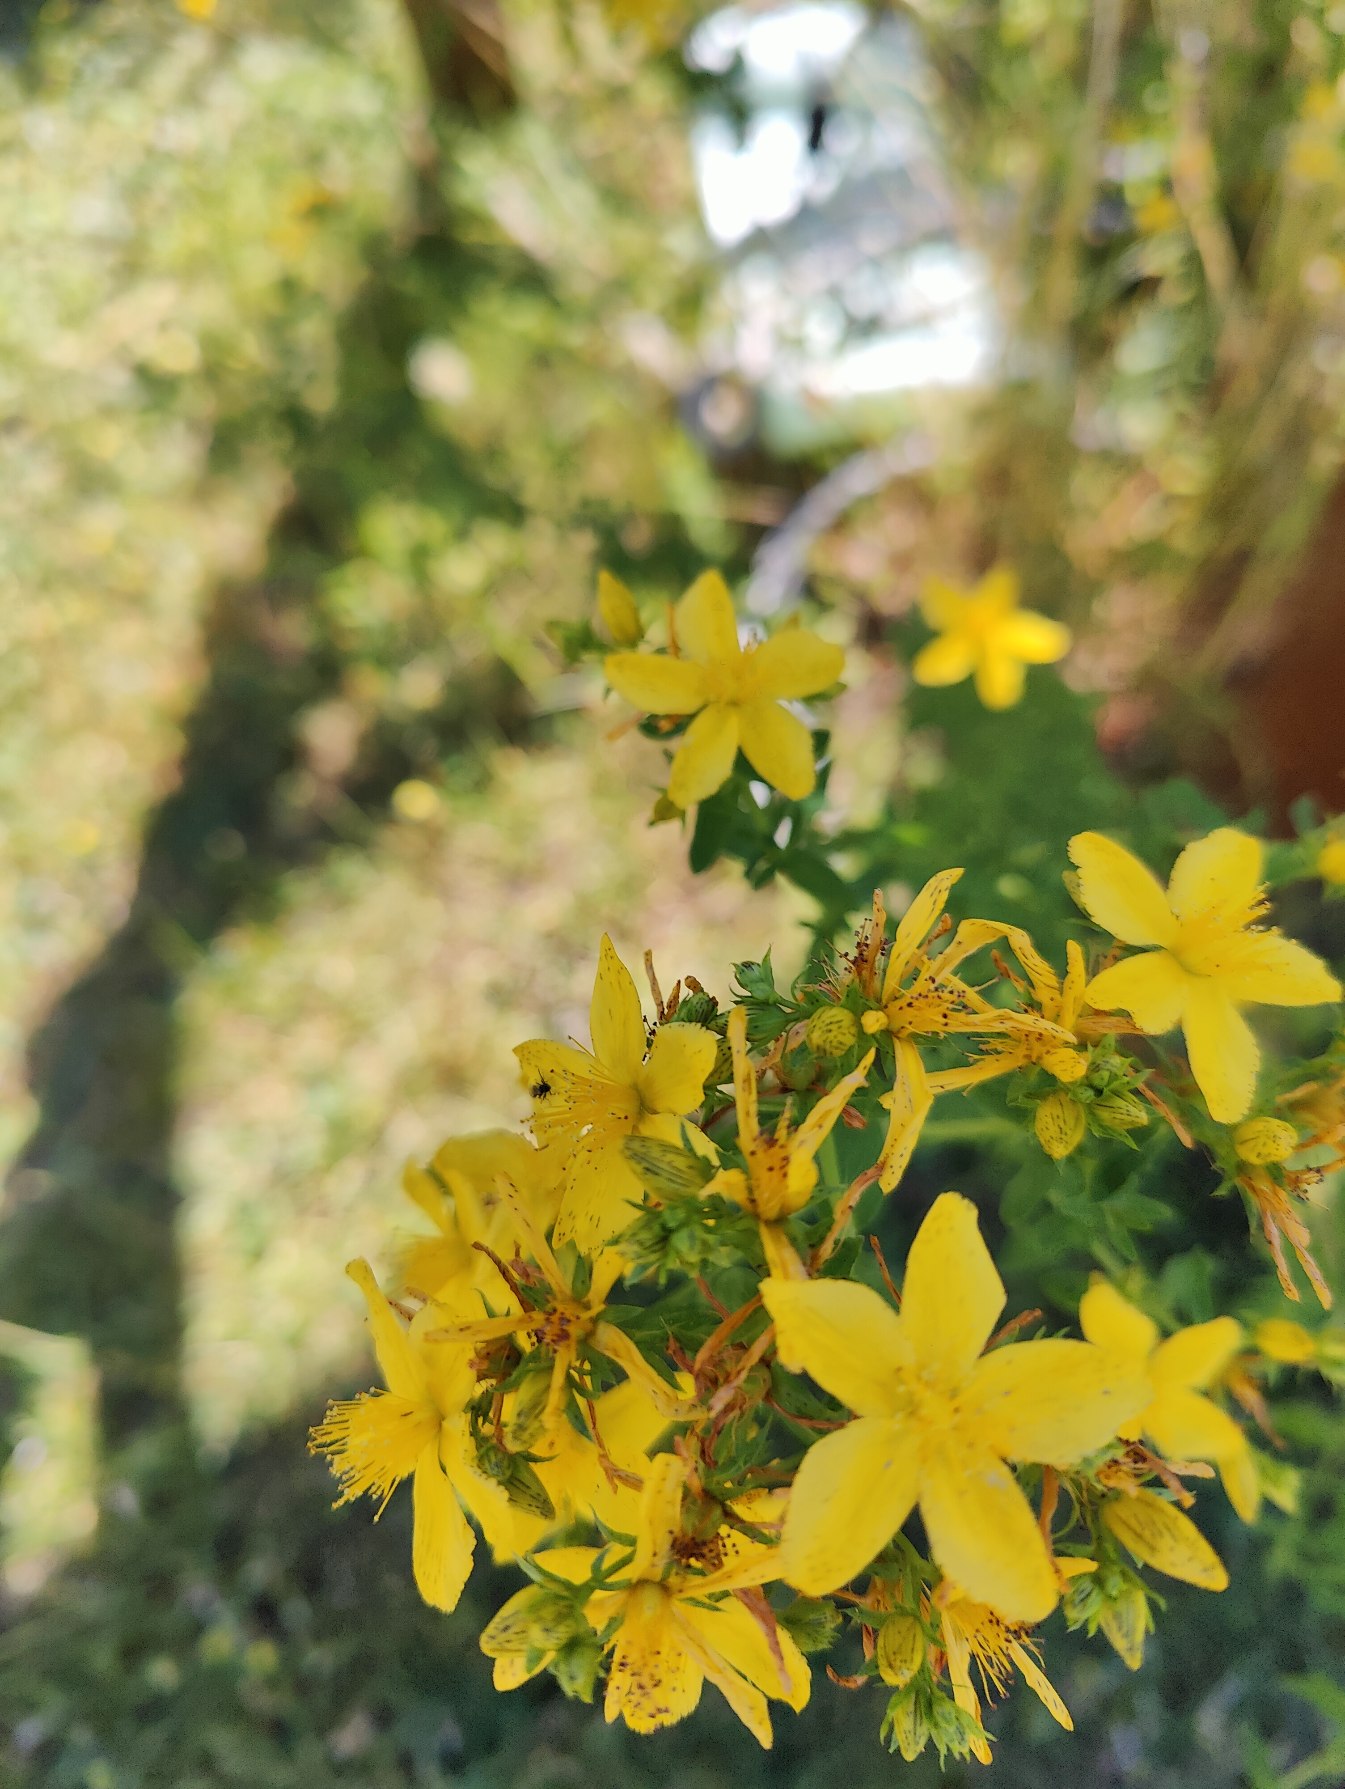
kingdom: Plantae
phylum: Tracheophyta
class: Magnoliopsida
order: Malpighiales
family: Hypericaceae
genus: Hypericum
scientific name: Hypericum perforatum
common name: Prikbladet perikon
